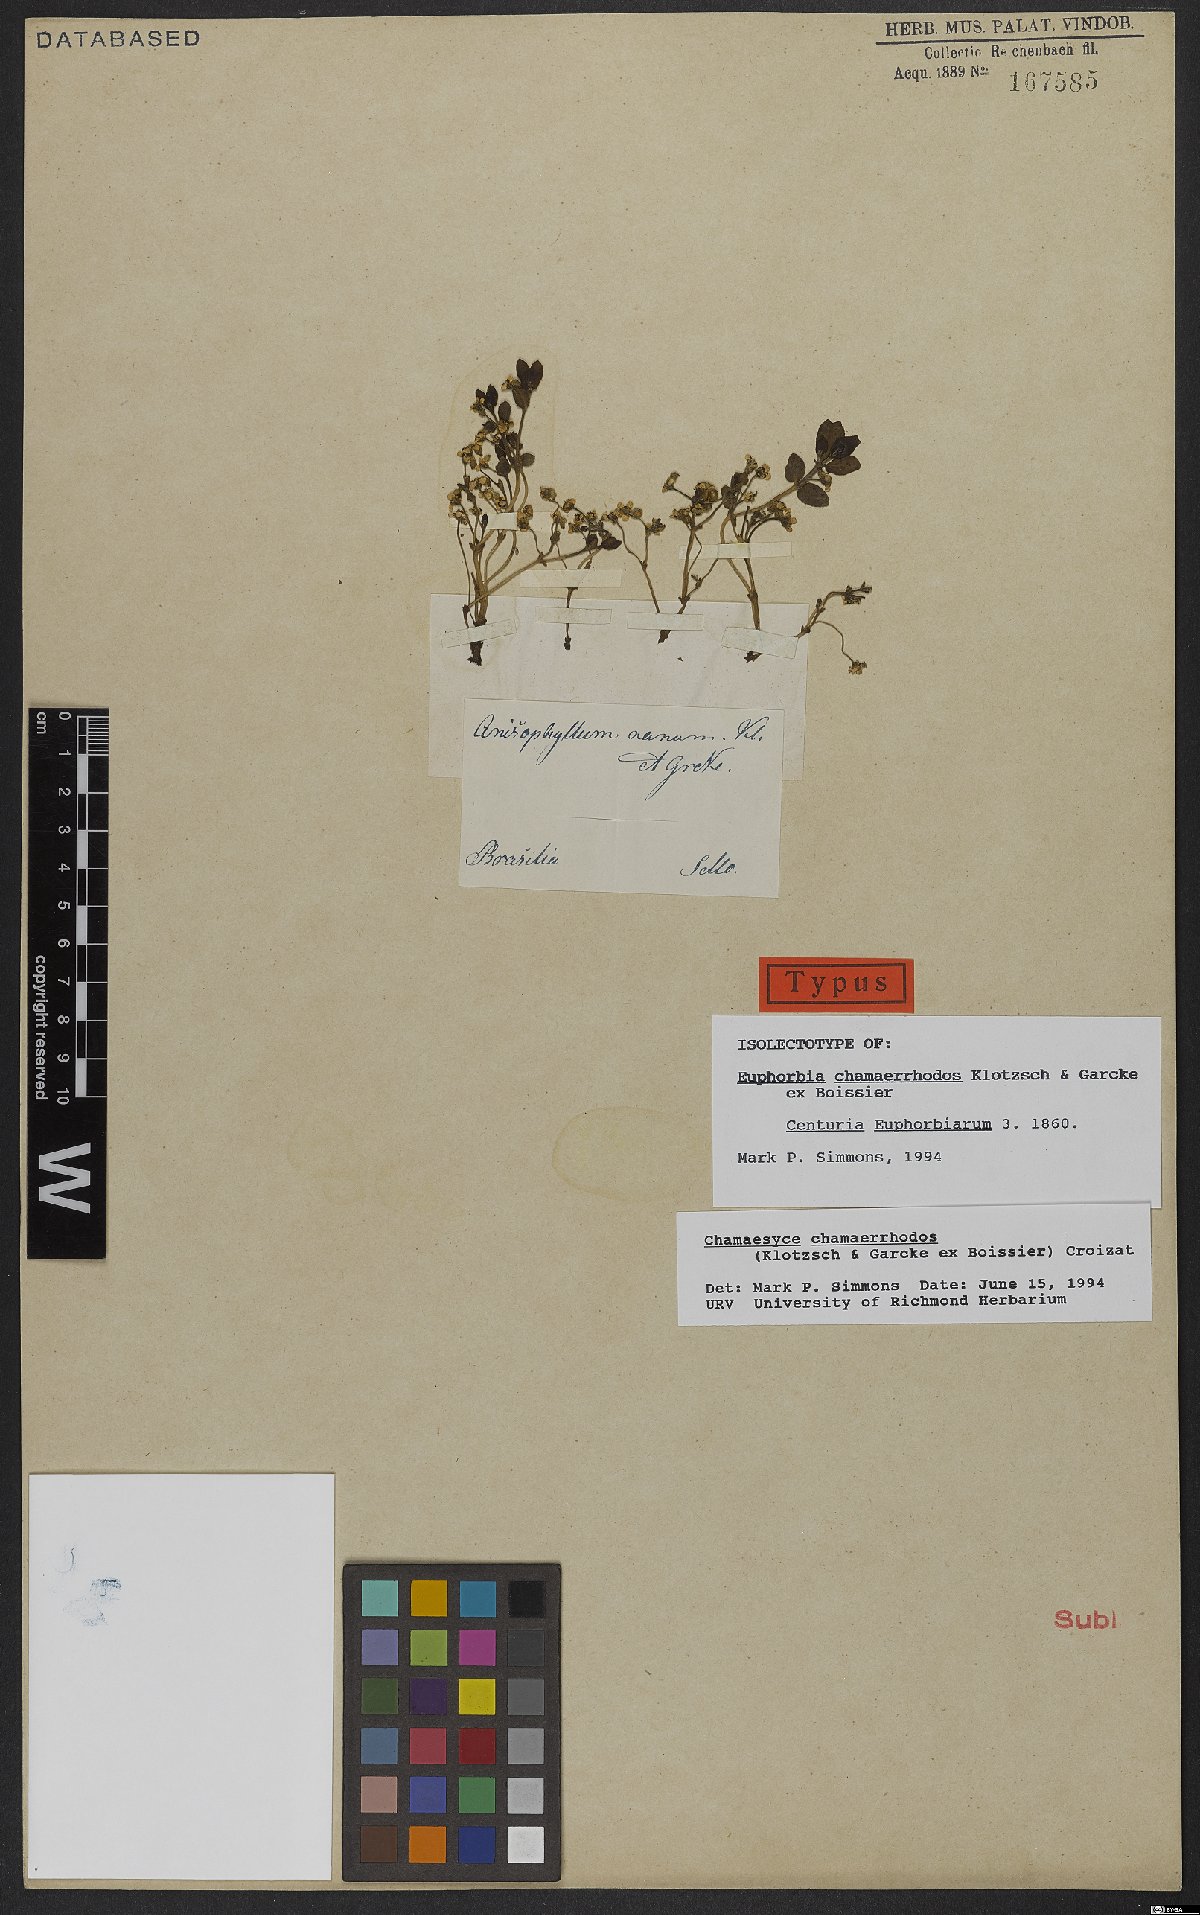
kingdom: Plantae
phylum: Tracheophyta
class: Magnoliopsida
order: Malpighiales
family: Euphorbiaceae
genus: Euphorbia
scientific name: Euphorbia chamaerrhodos
